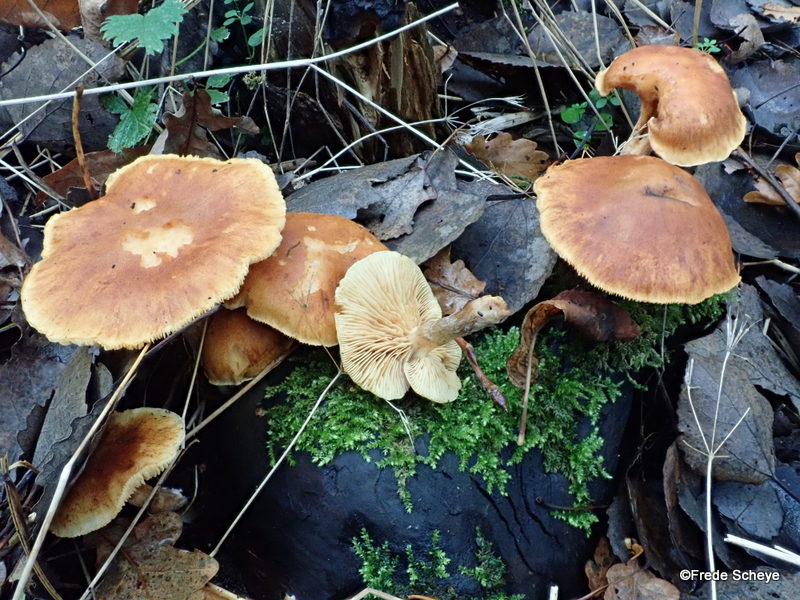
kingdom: Fungi
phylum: Basidiomycota
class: Agaricomycetes
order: Agaricales
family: Hymenogastraceae
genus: Gymnopilus
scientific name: Gymnopilus penetrans
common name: plettet flammehat
